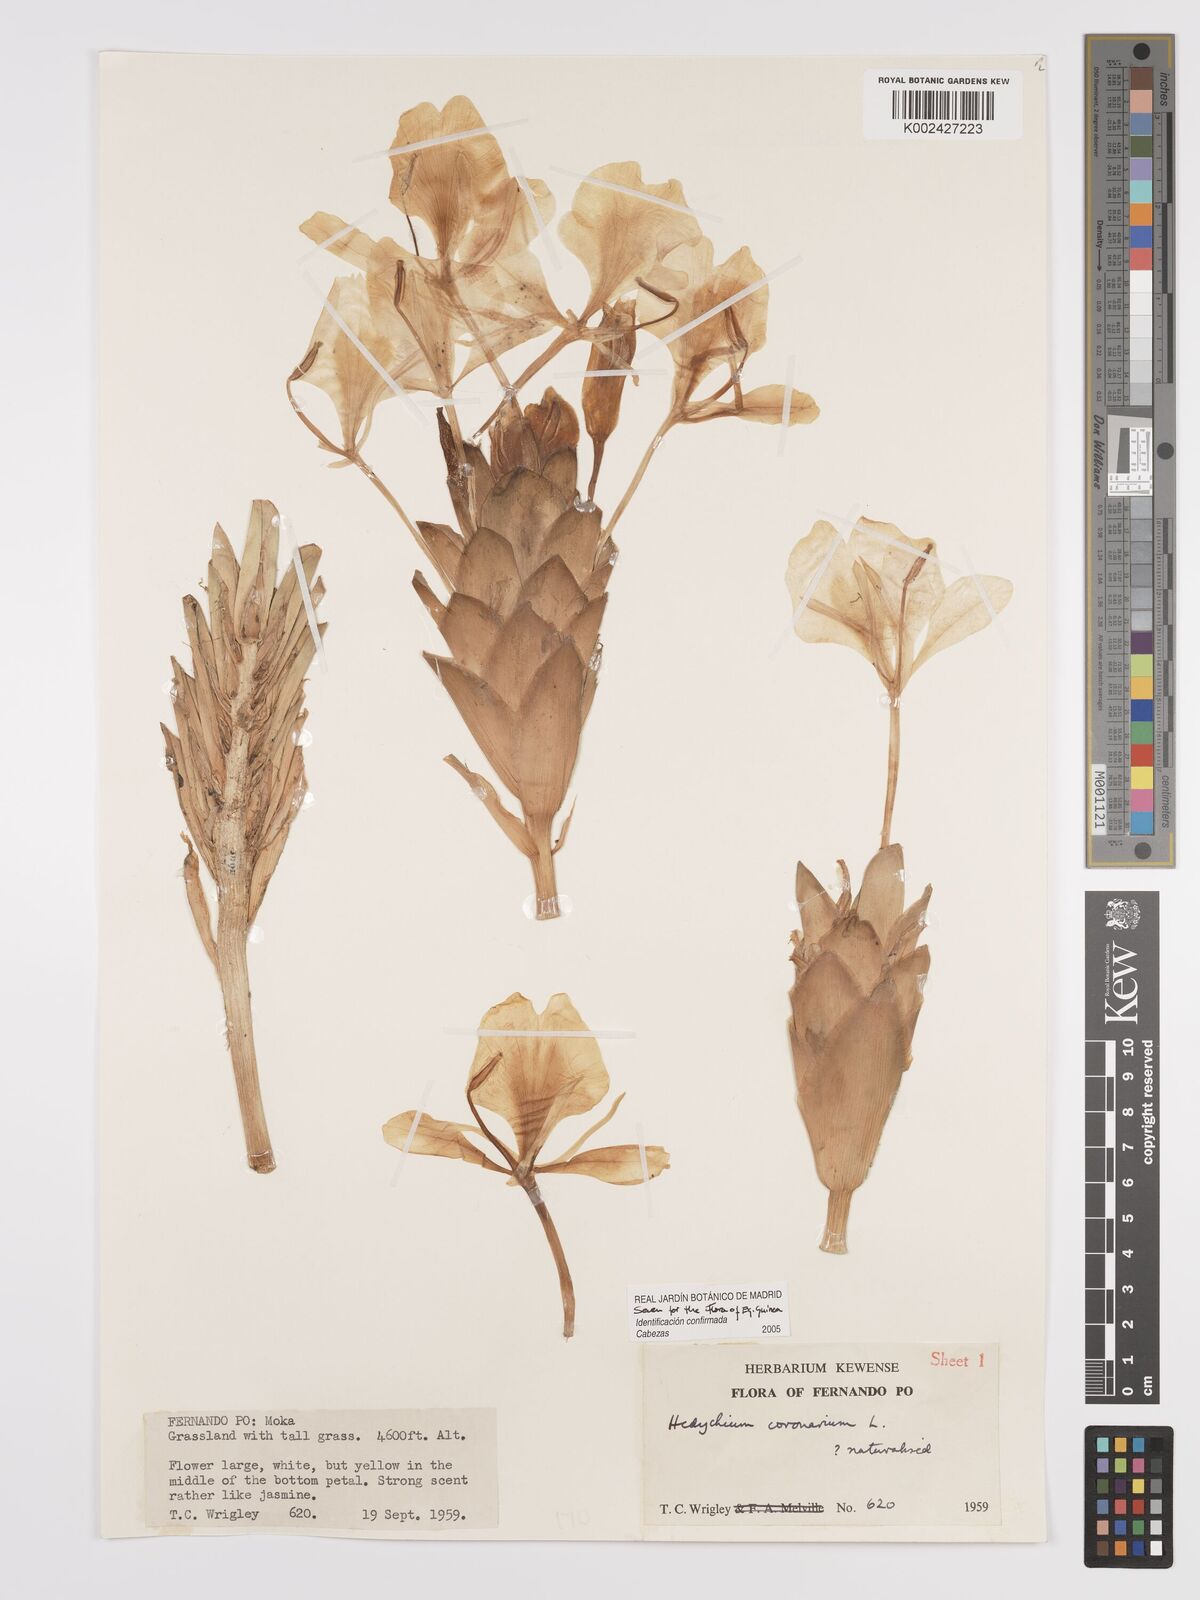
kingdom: Plantae
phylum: Tracheophyta
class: Liliopsida
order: Zingiberales
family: Zingiberaceae
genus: Hedychium
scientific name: Hedychium coronarium
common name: White garland-lily
